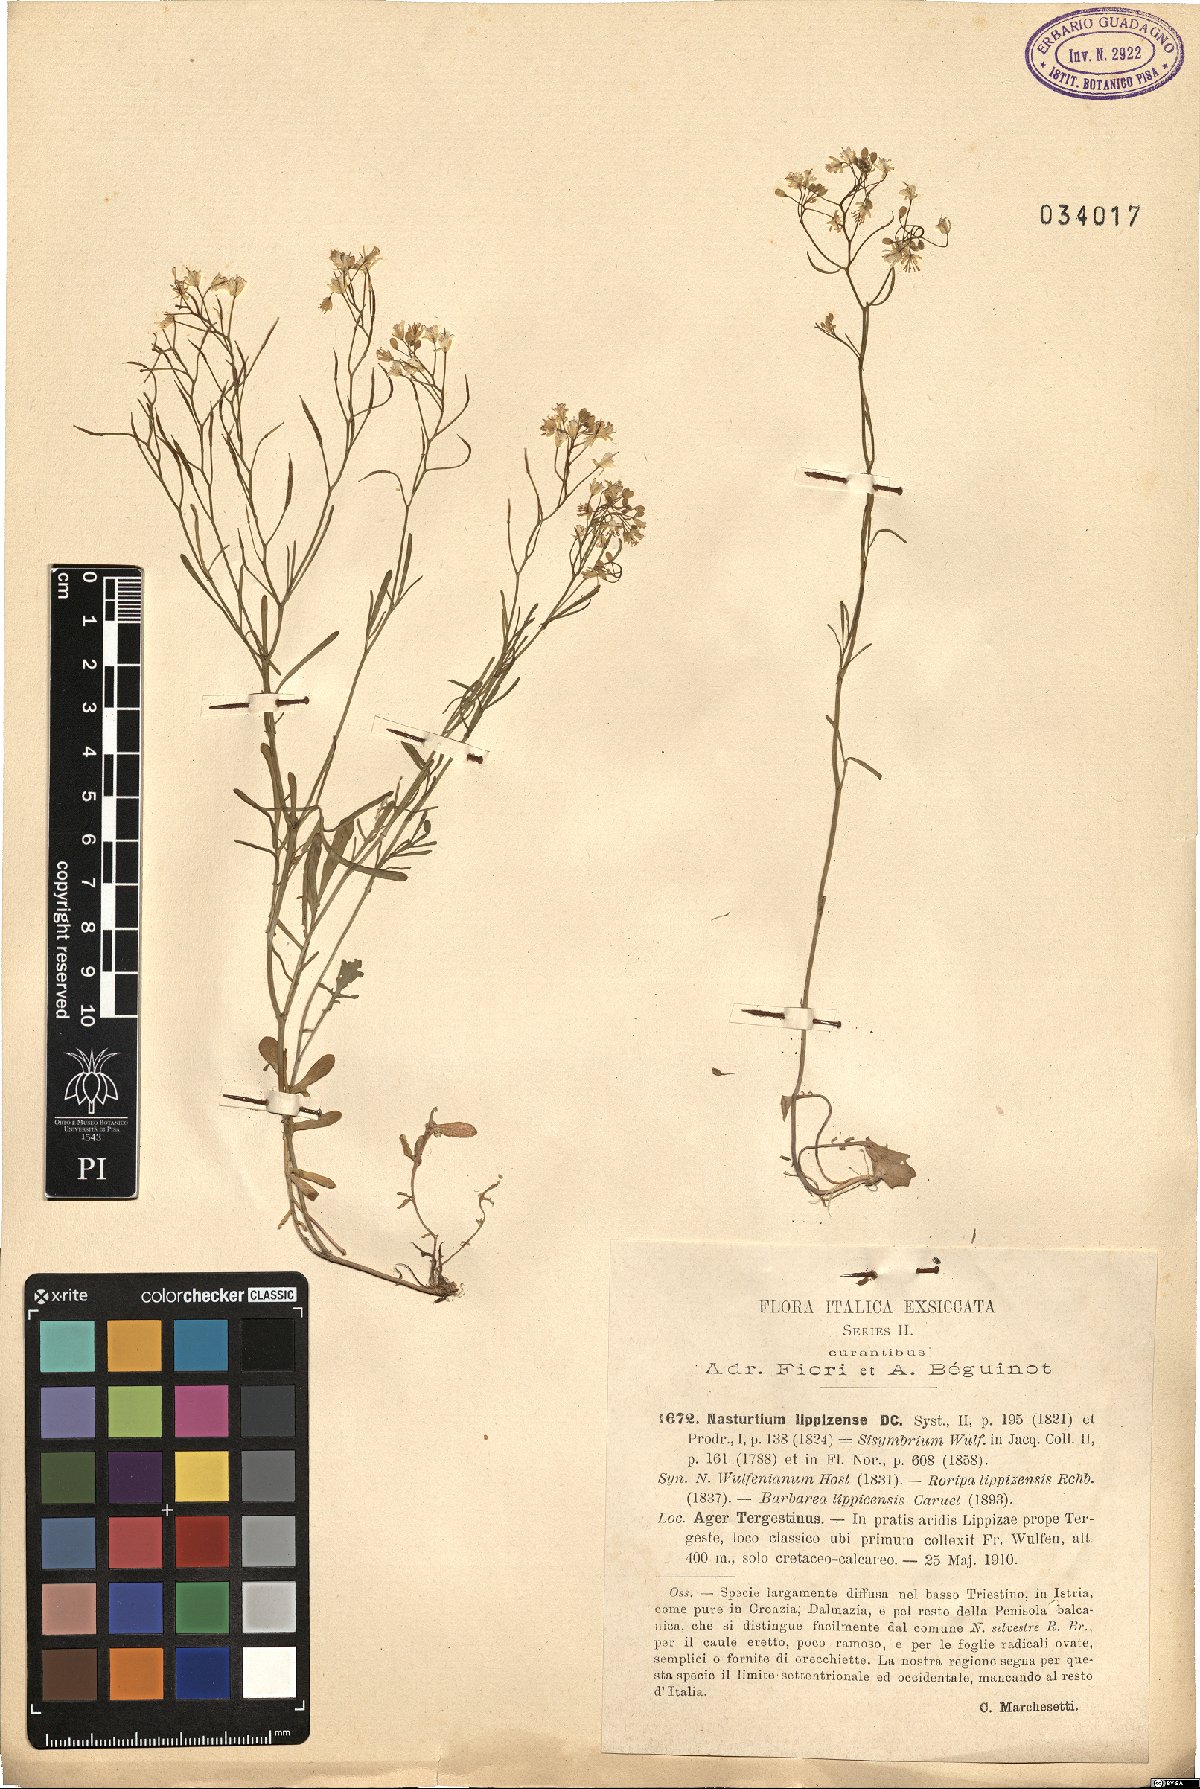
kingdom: Plantae
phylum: Tracheophyta
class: Magnoliopsida
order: Brassicales
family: Brassicaceae
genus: Rorippa
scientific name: Rorippa lippizensis
